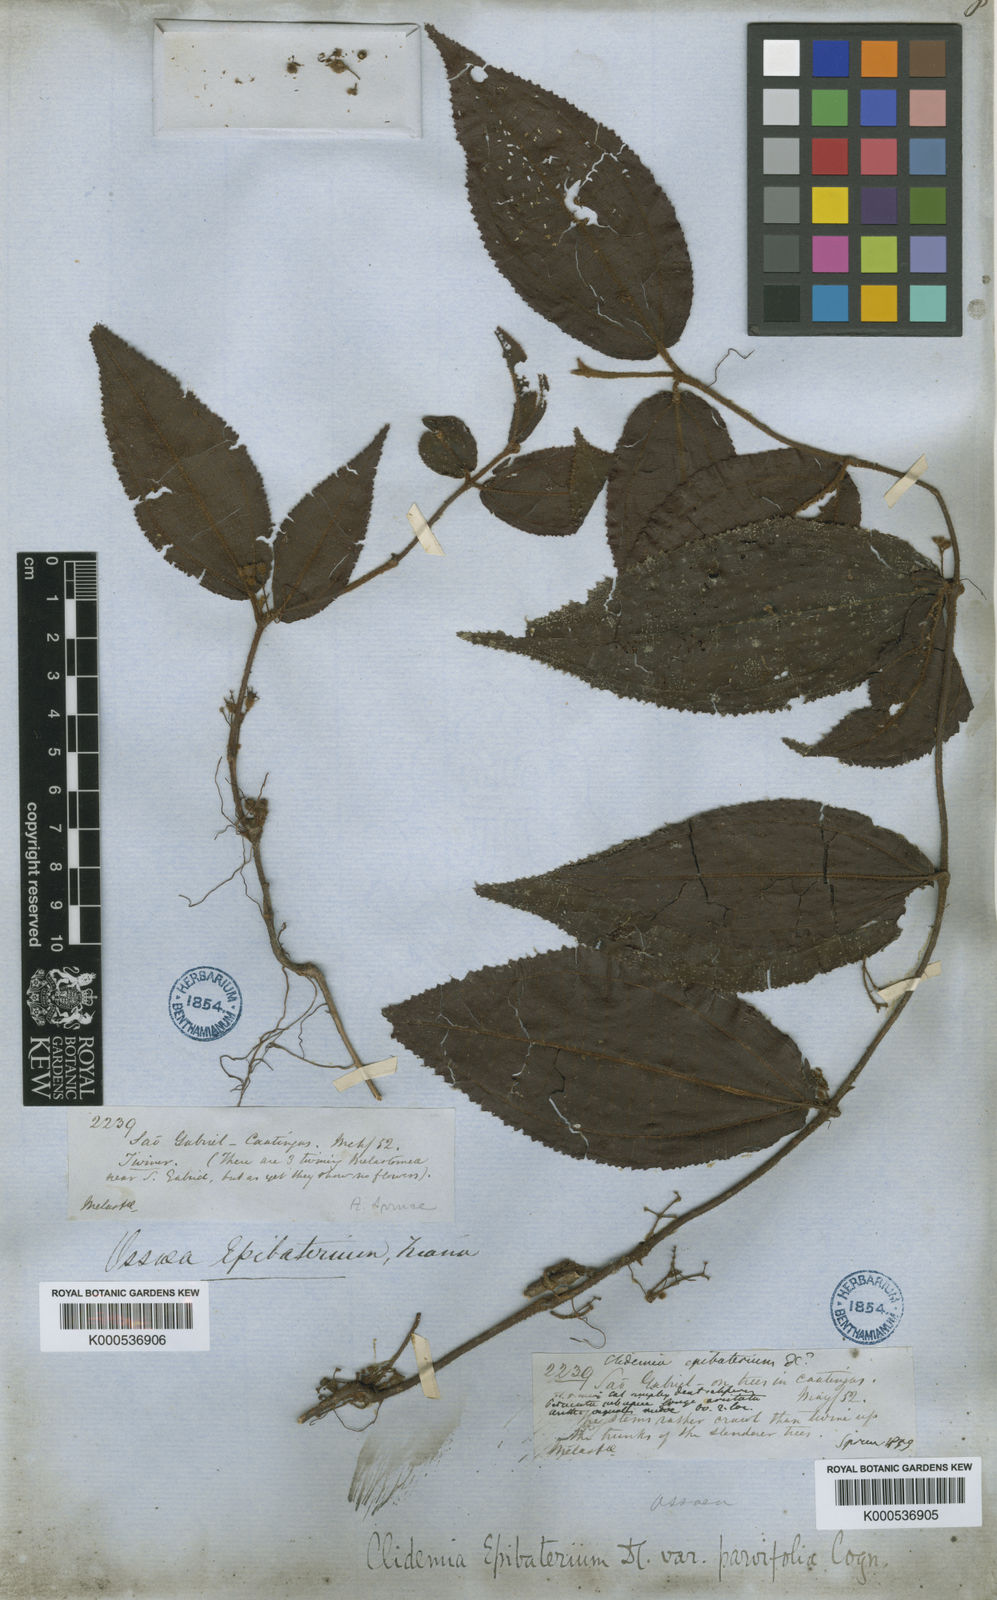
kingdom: Plantae
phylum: Tracheophyta
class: Magnoliopsida
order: Myrtales
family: Melastomataceae
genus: Miconia
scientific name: Miconia epibaterium
